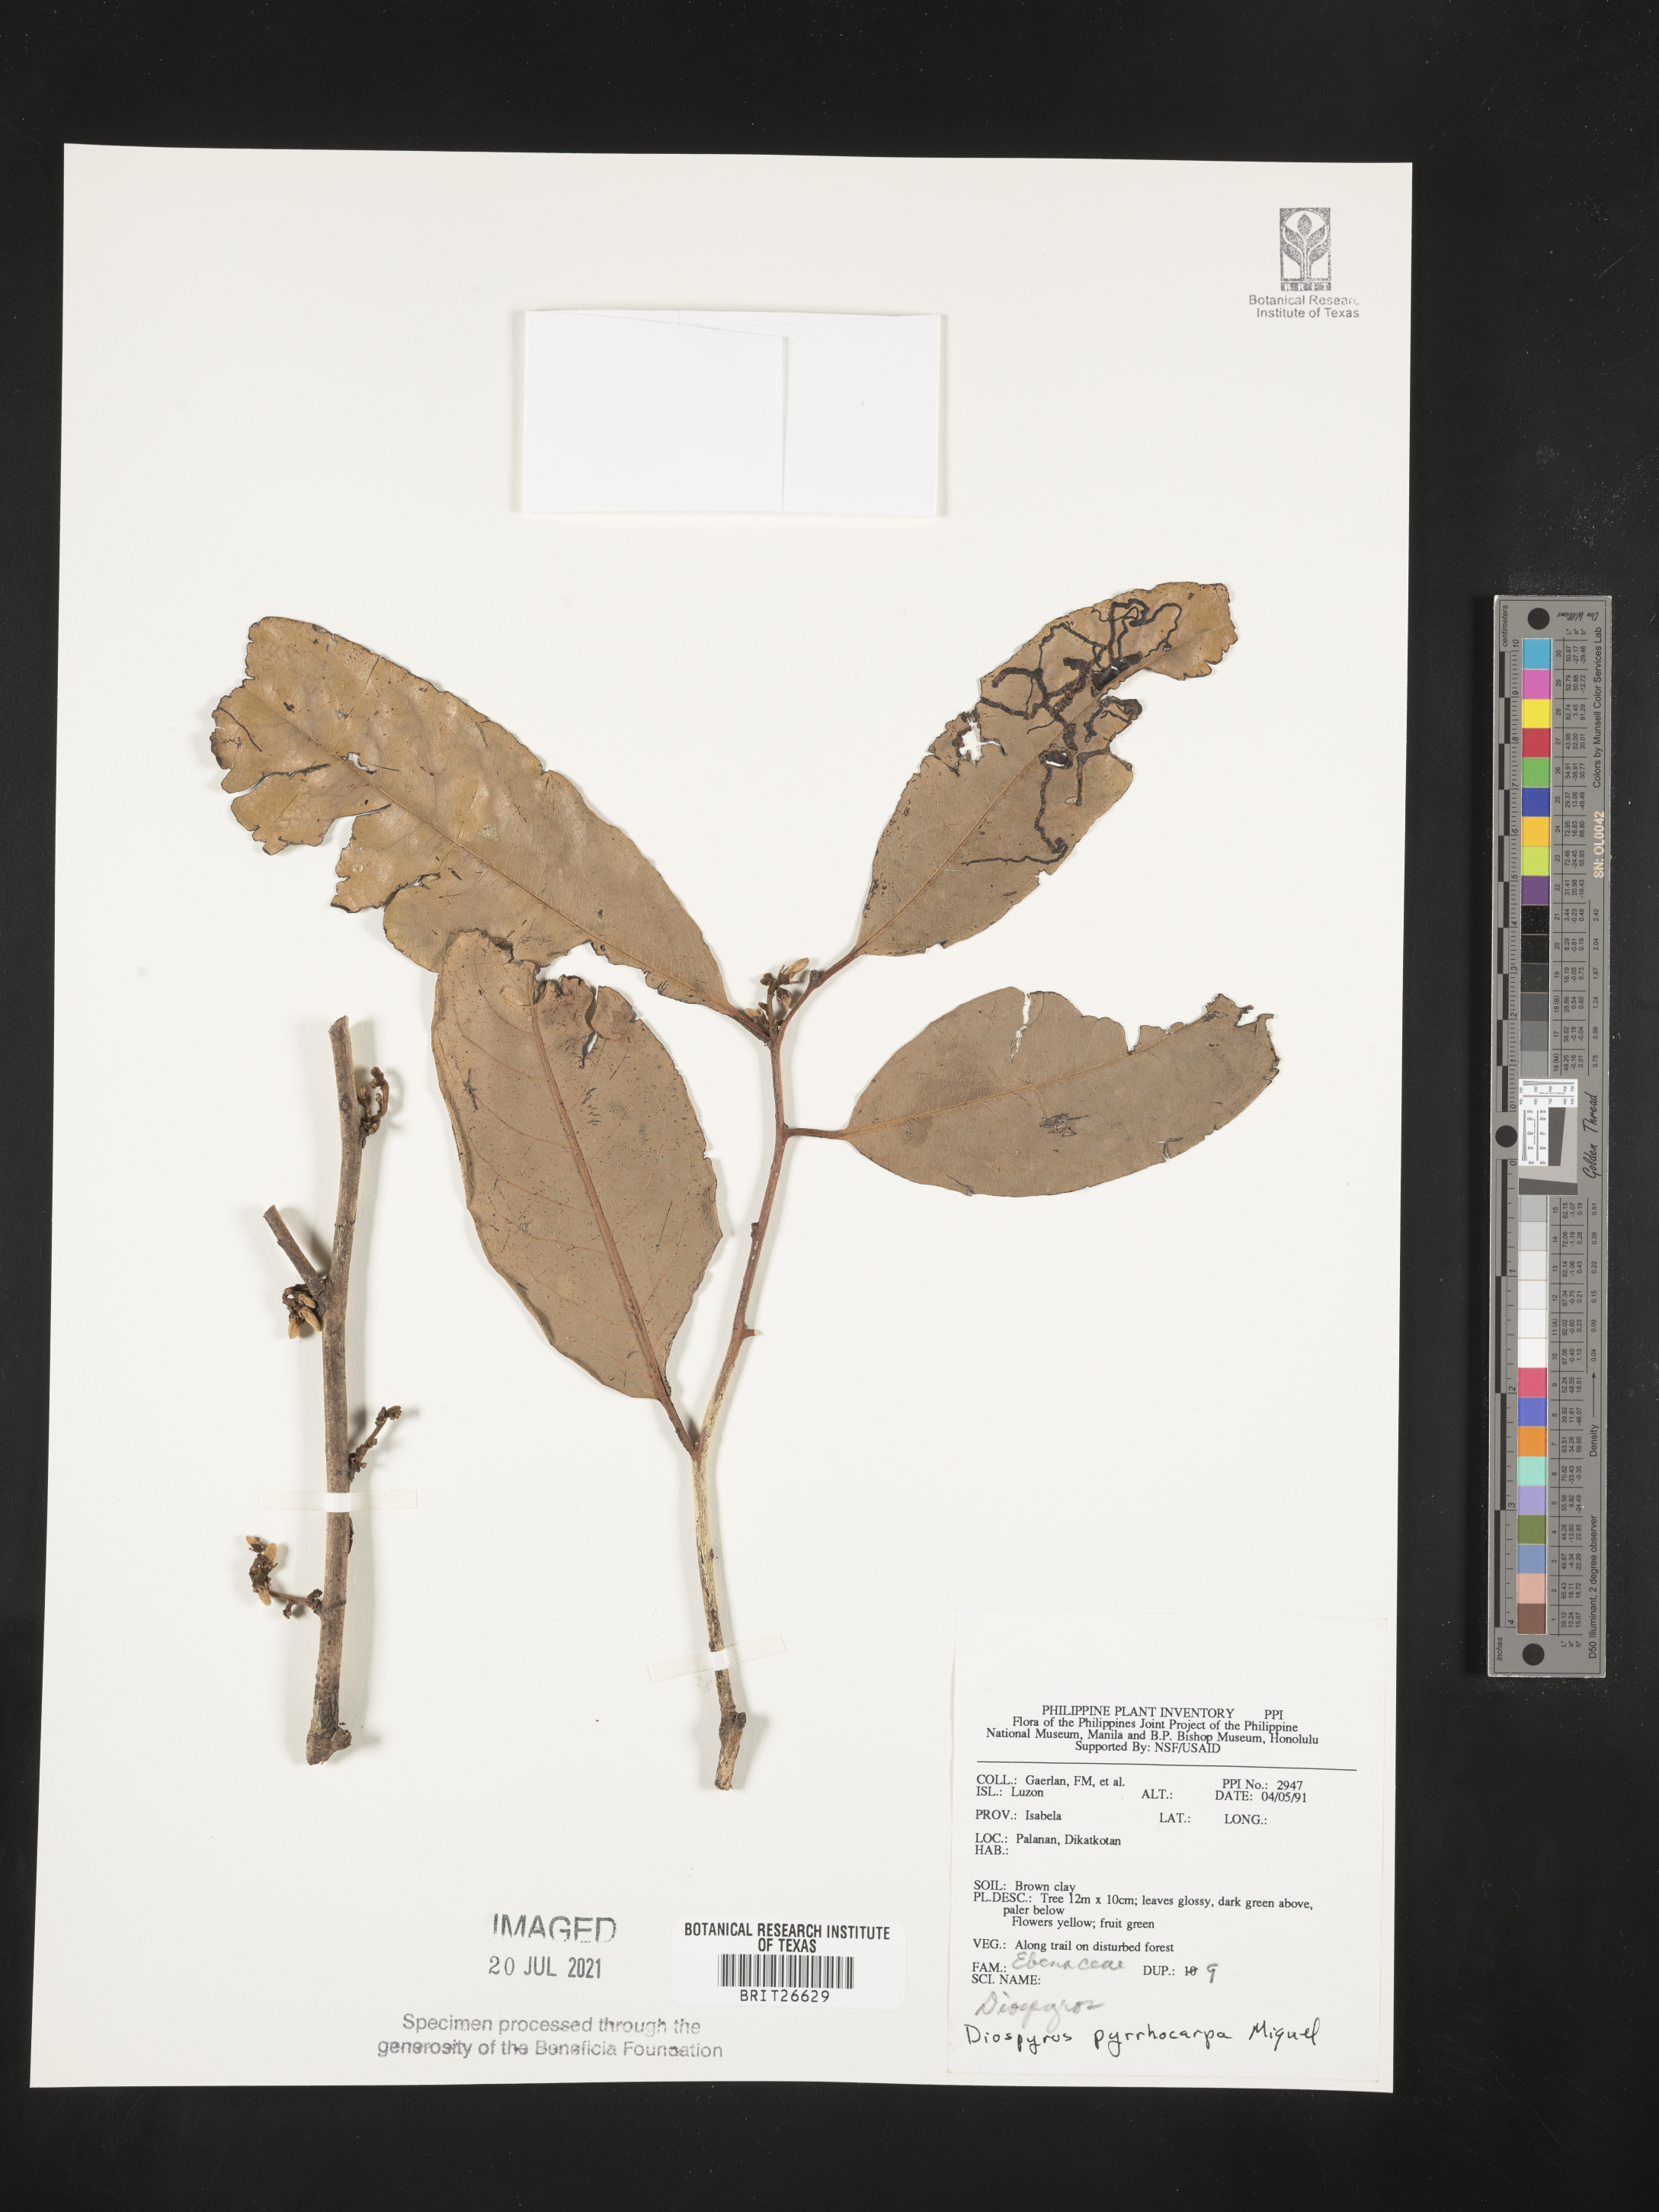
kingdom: Plantae
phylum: Tracheophyta
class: Magnoliopsida
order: Ericales
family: Ebenaceae
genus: Diospyros
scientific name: Diospyros pyrrhocarpa
